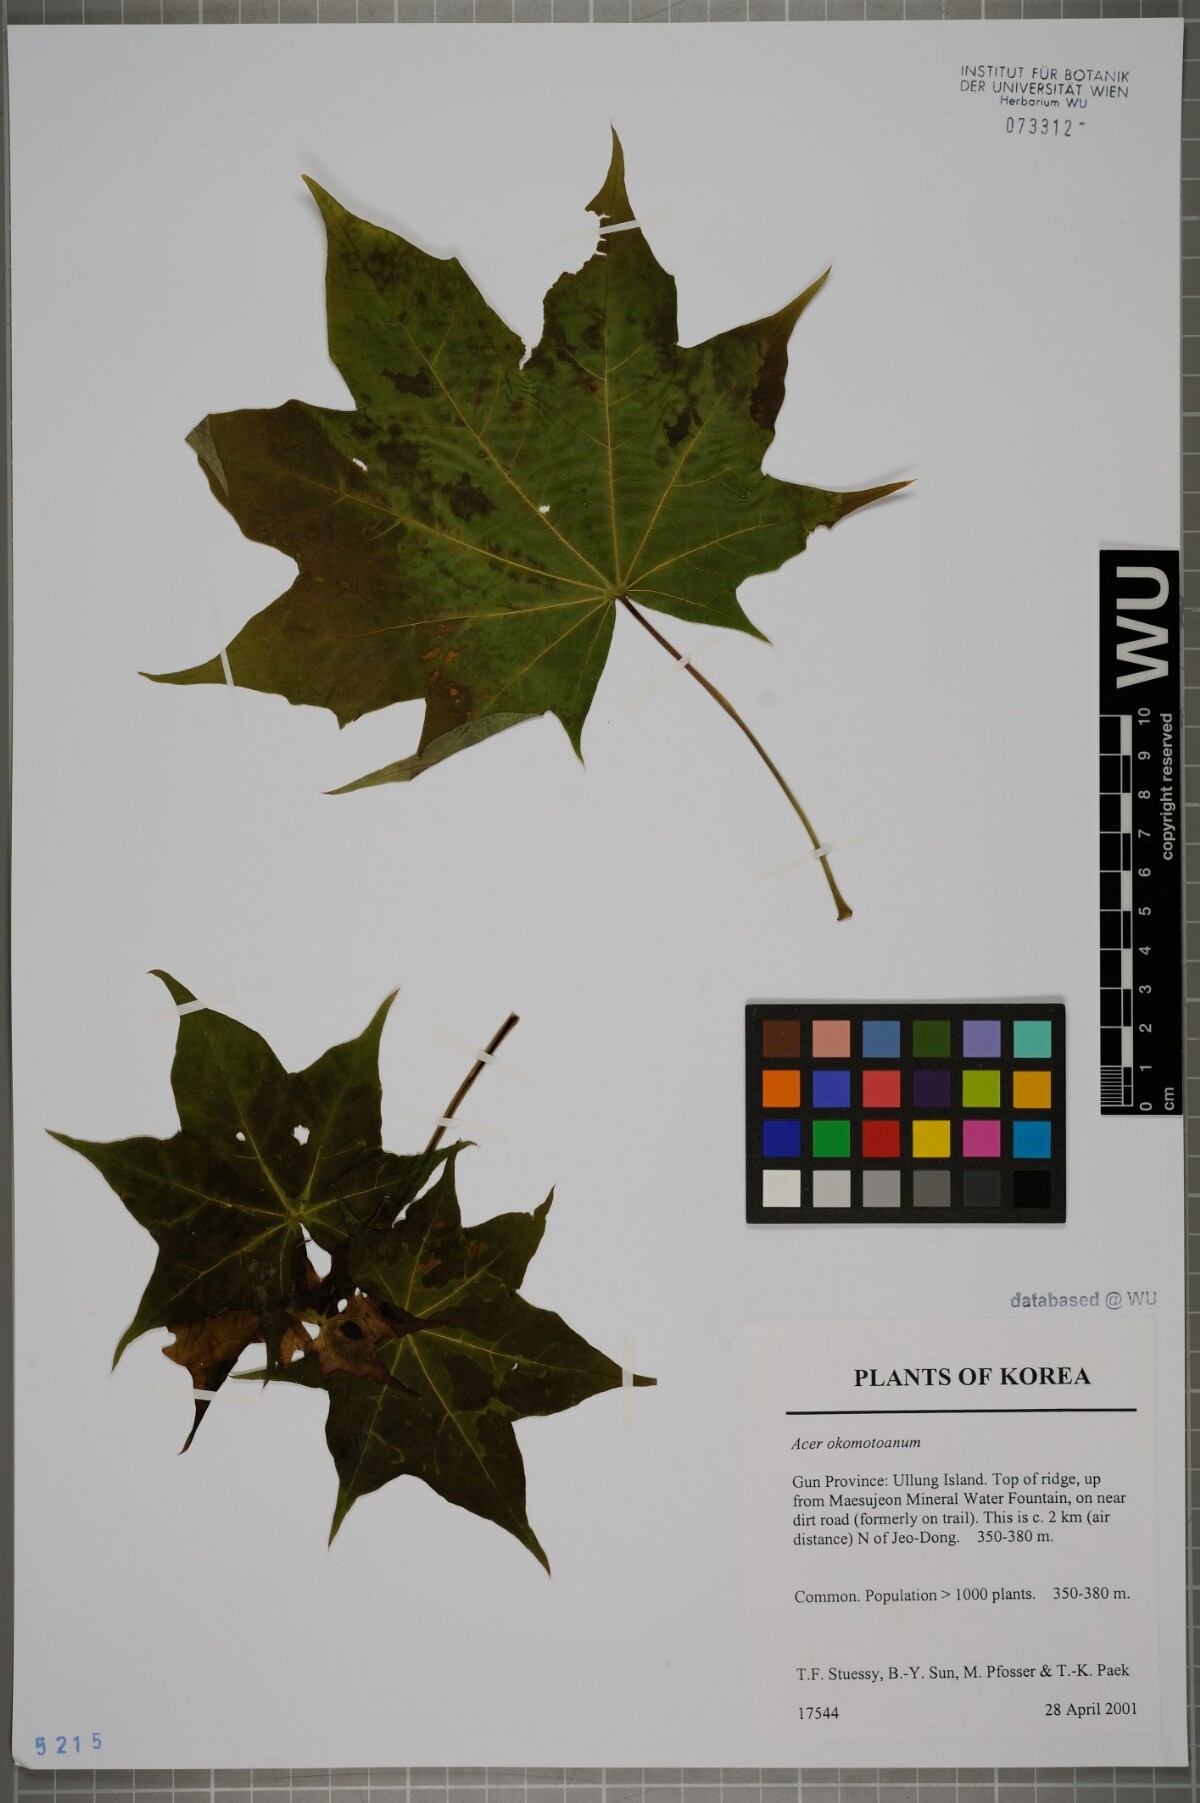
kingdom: Plantae
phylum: Tracheophyta
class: Magnoliopsida
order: Sapindales
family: Sapindaceae
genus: Acer
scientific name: Acer pictum
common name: The painted maple
